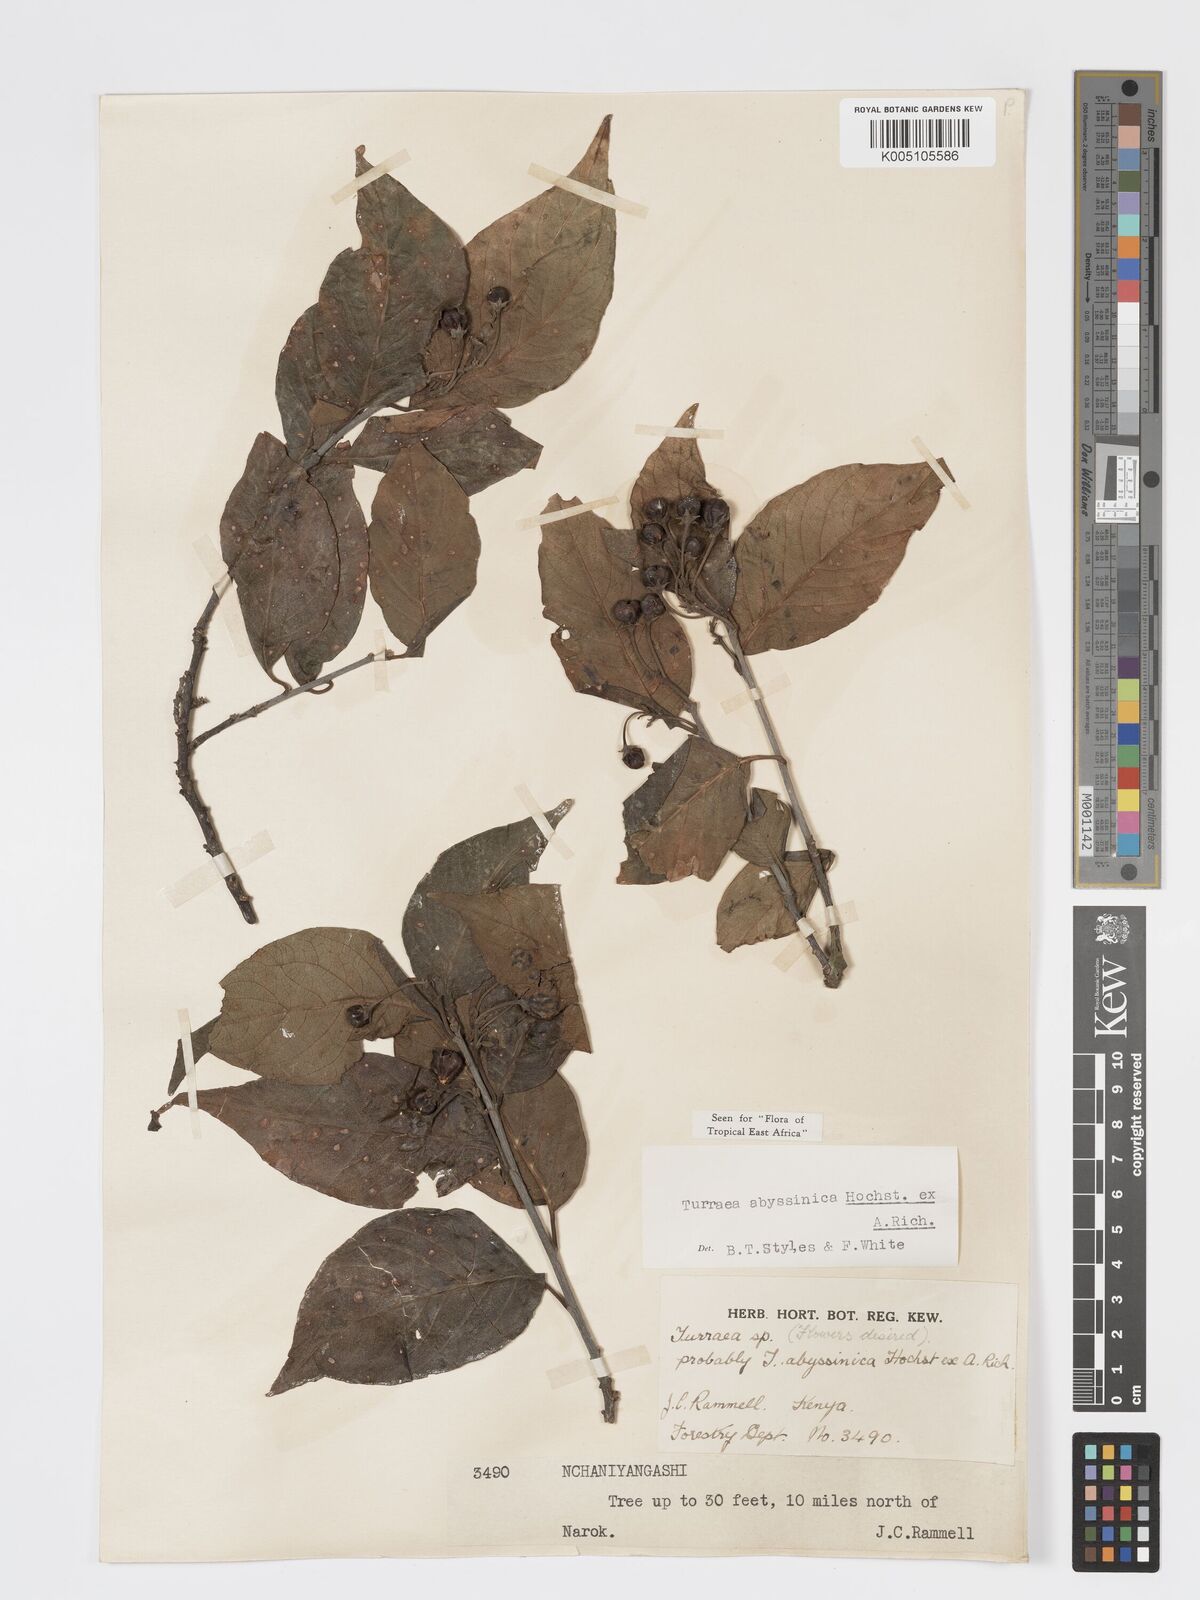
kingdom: Plantae
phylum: Tracheophyta
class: Magnoliopsida
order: Sapindales
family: Meliaceae
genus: Turraea
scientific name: Turraea abyssinica
